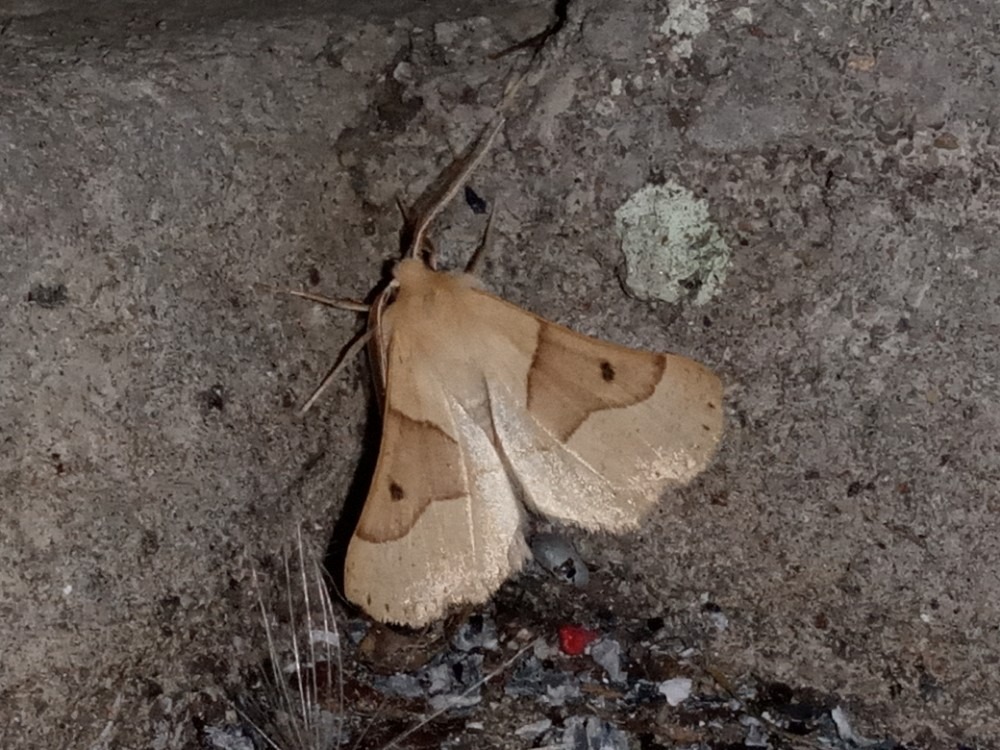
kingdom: Animalia
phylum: Arthropoda
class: Insecta
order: Lepidoptera
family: Geometridae
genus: Crocallis
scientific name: Crocallis elinguaria
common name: Okkergul rovmåler
